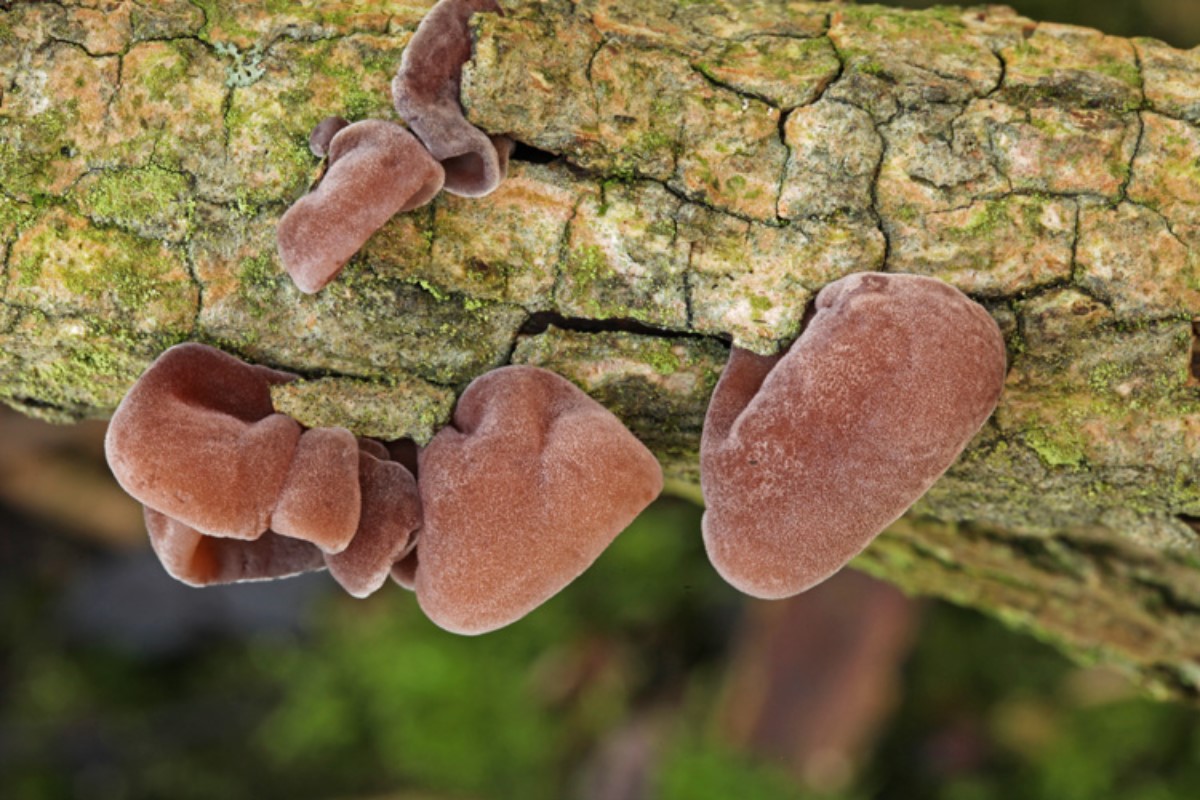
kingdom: Fungi
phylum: Basidiomycota
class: Agaricomycetes
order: Auriculariales
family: Auriculariaceae
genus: Auricularia
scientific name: Auricularia auricula-judae
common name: almindelig judasøre
